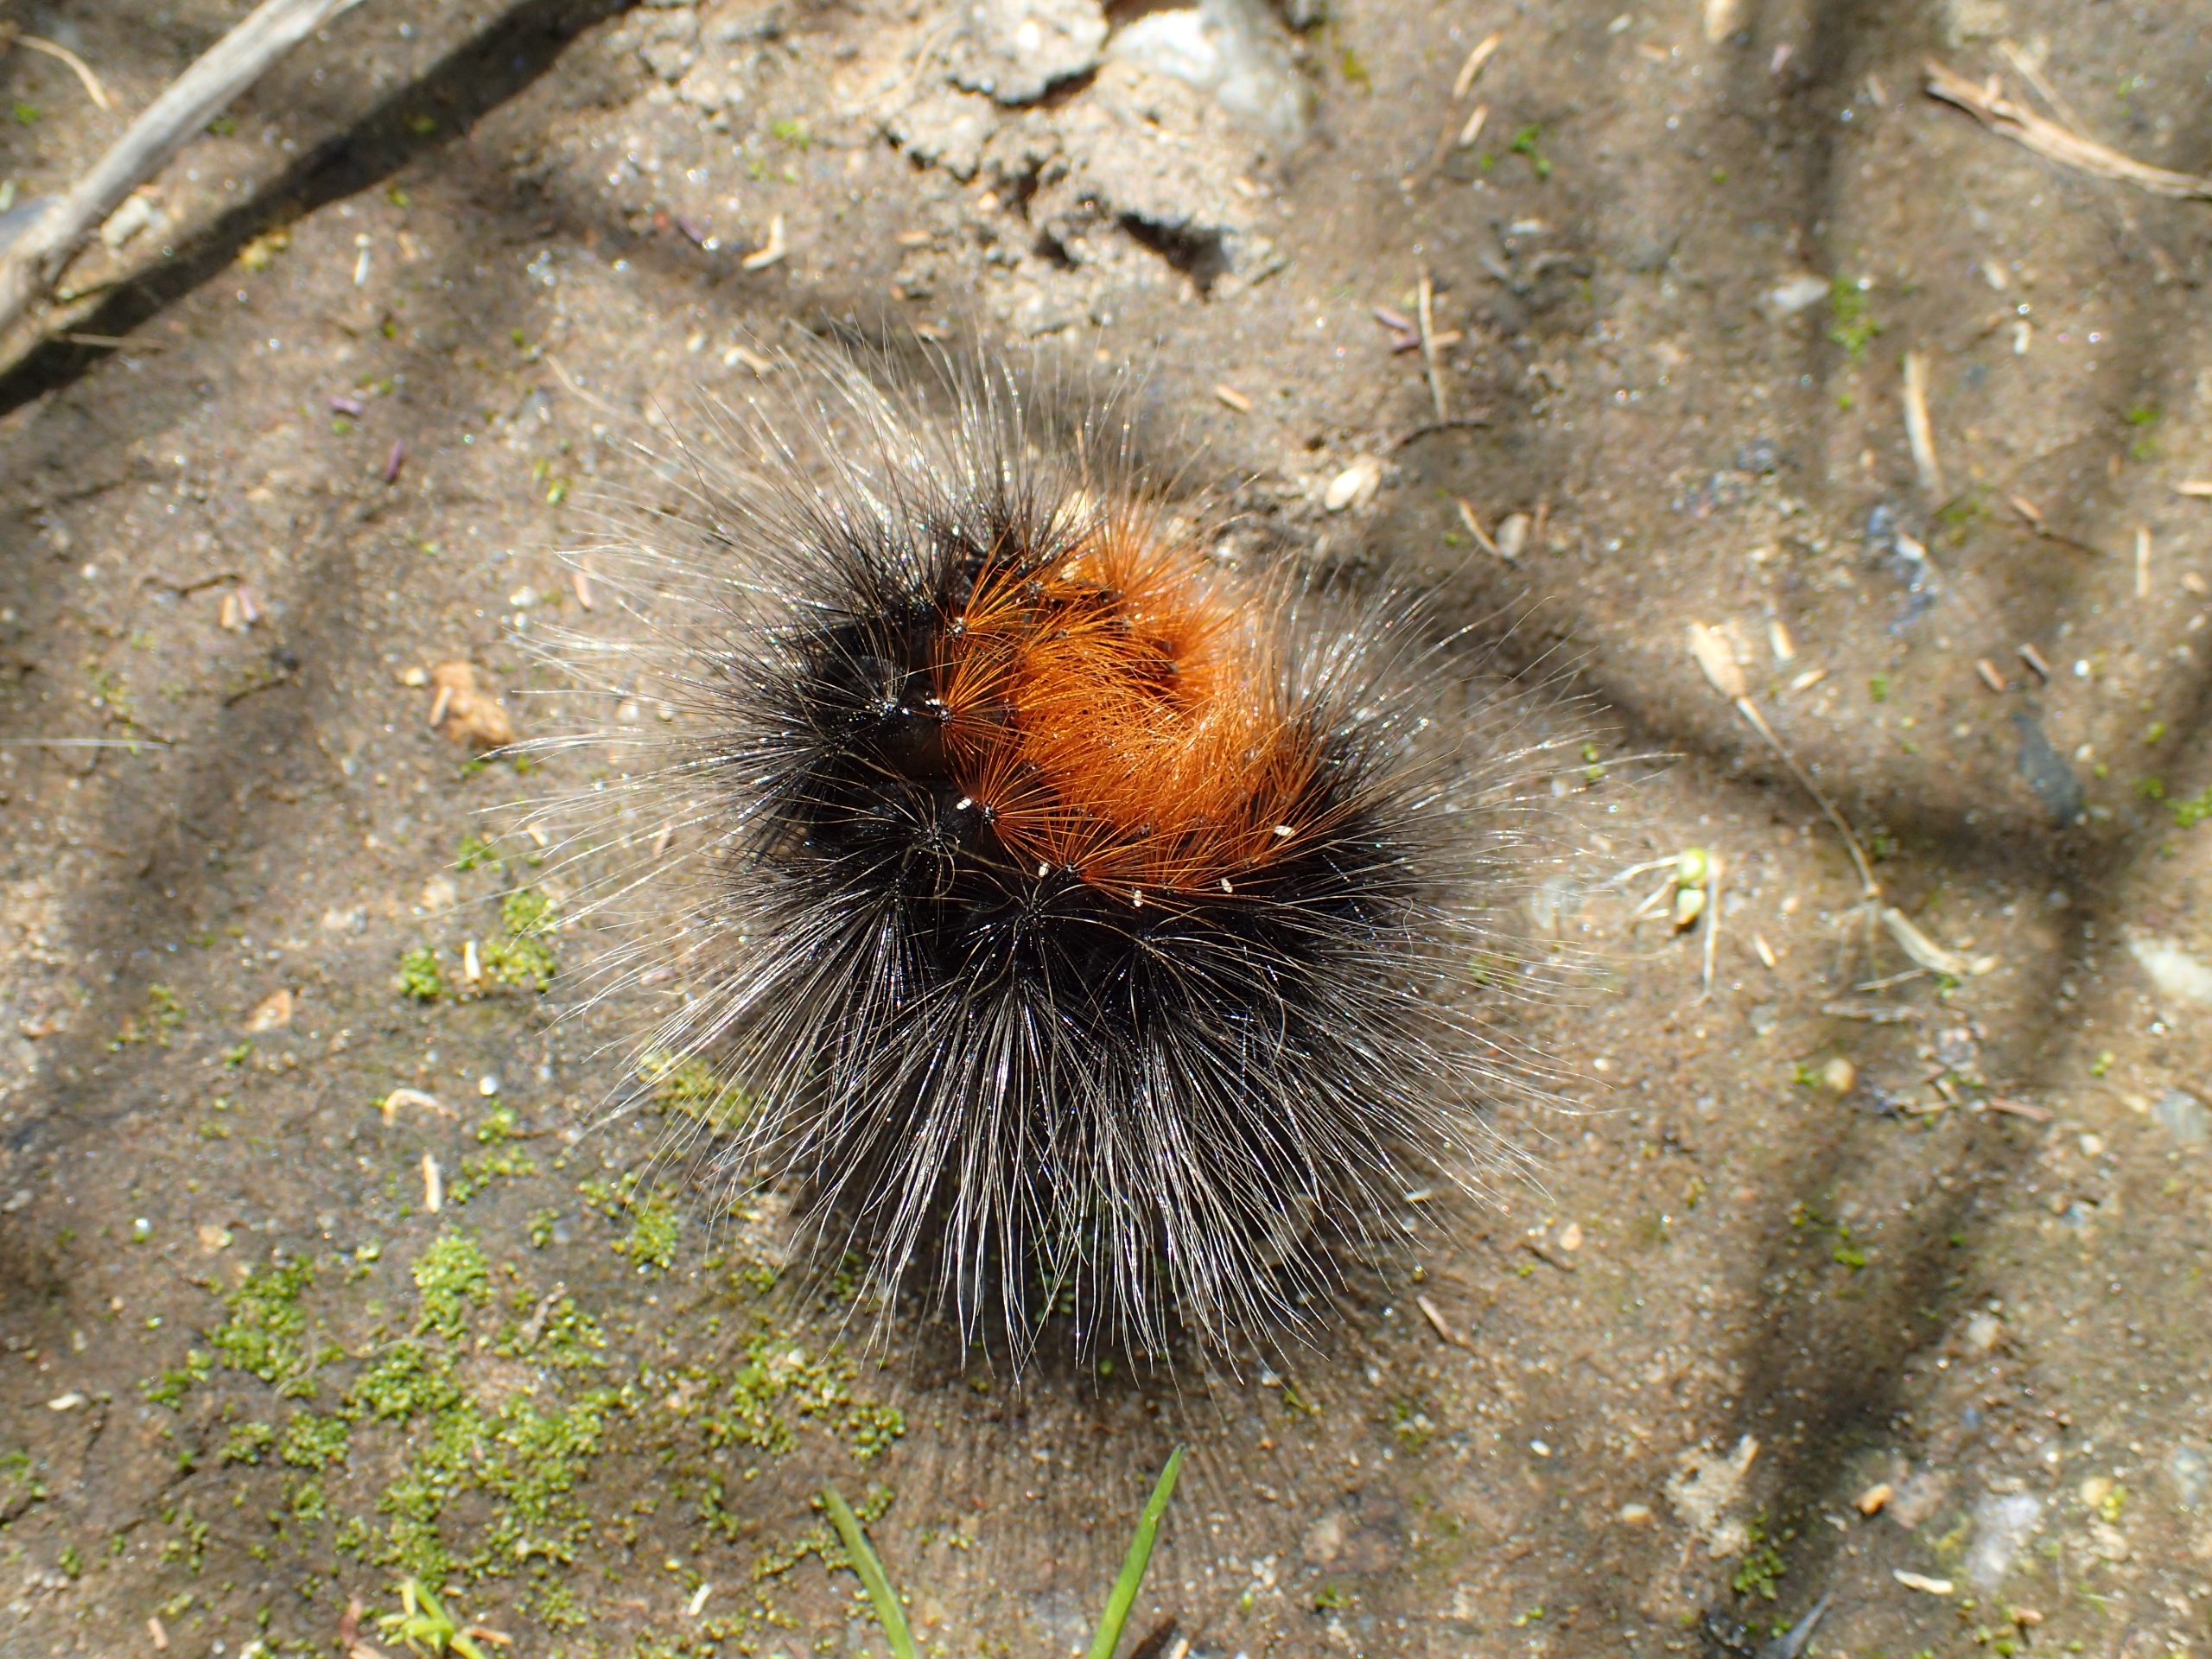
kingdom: Animalia
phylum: Arthropoda
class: Insecta
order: Lepidoptera
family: Erebidae
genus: Arctia
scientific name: Arctia caja
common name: Brun bjørn
